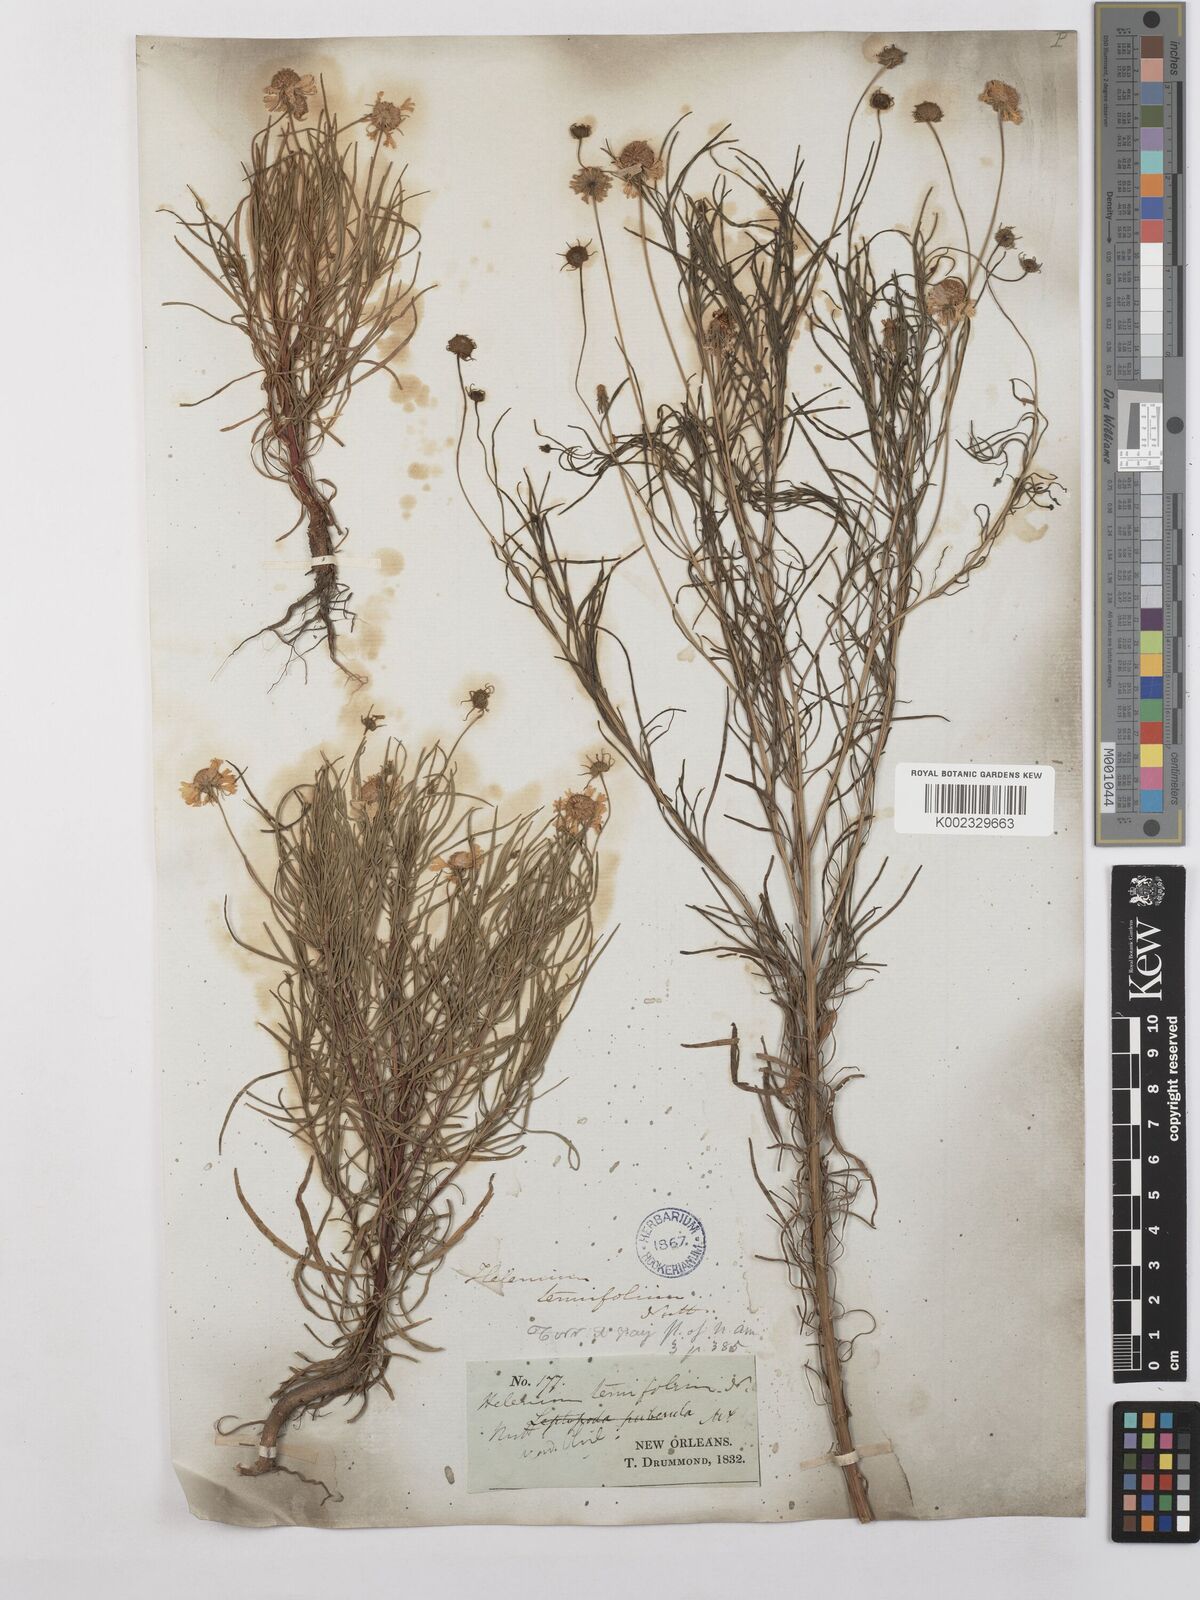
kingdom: Plantae
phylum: Tracheophyta
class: Magnoliopsida
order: Asterales
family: Asteraceae
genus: Helenium
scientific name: Helenium amarum
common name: Bitter sneezeweed
